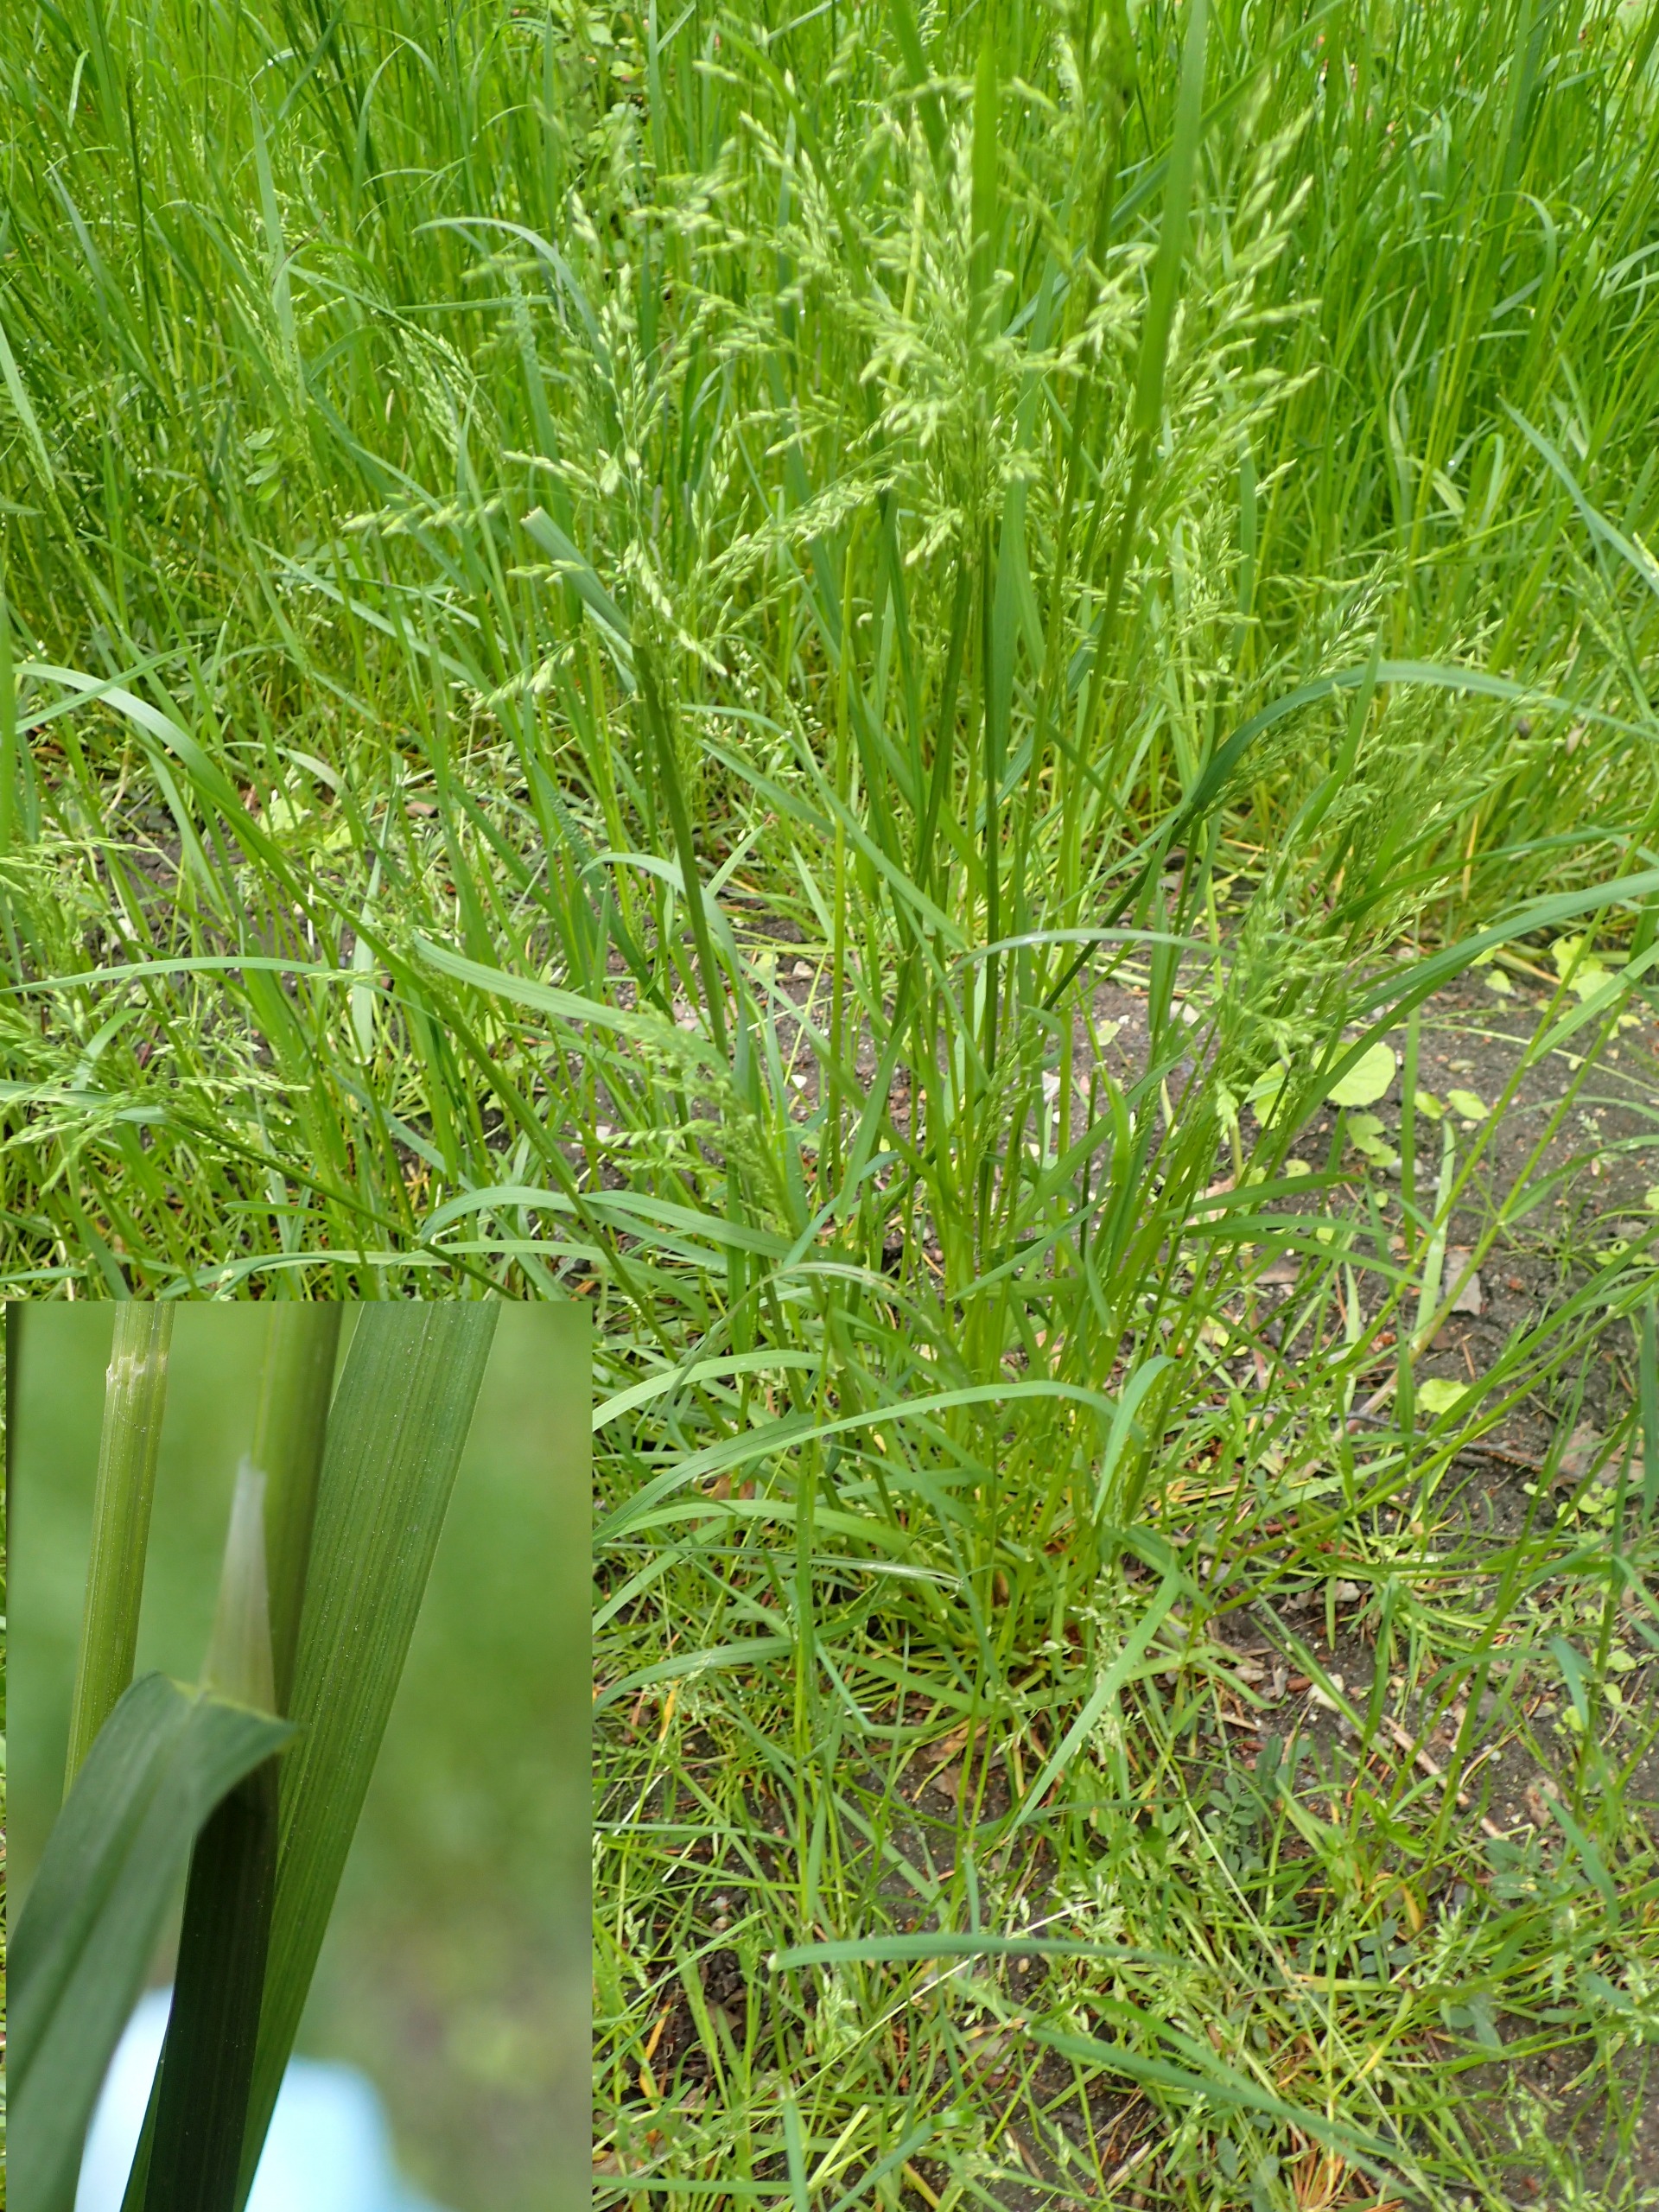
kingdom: Plantae
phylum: Tracheophyta
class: Liliopsida
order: Poales
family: Poaceae
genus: Poa
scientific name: Poa trivialis
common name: Almindelig rapgræs
